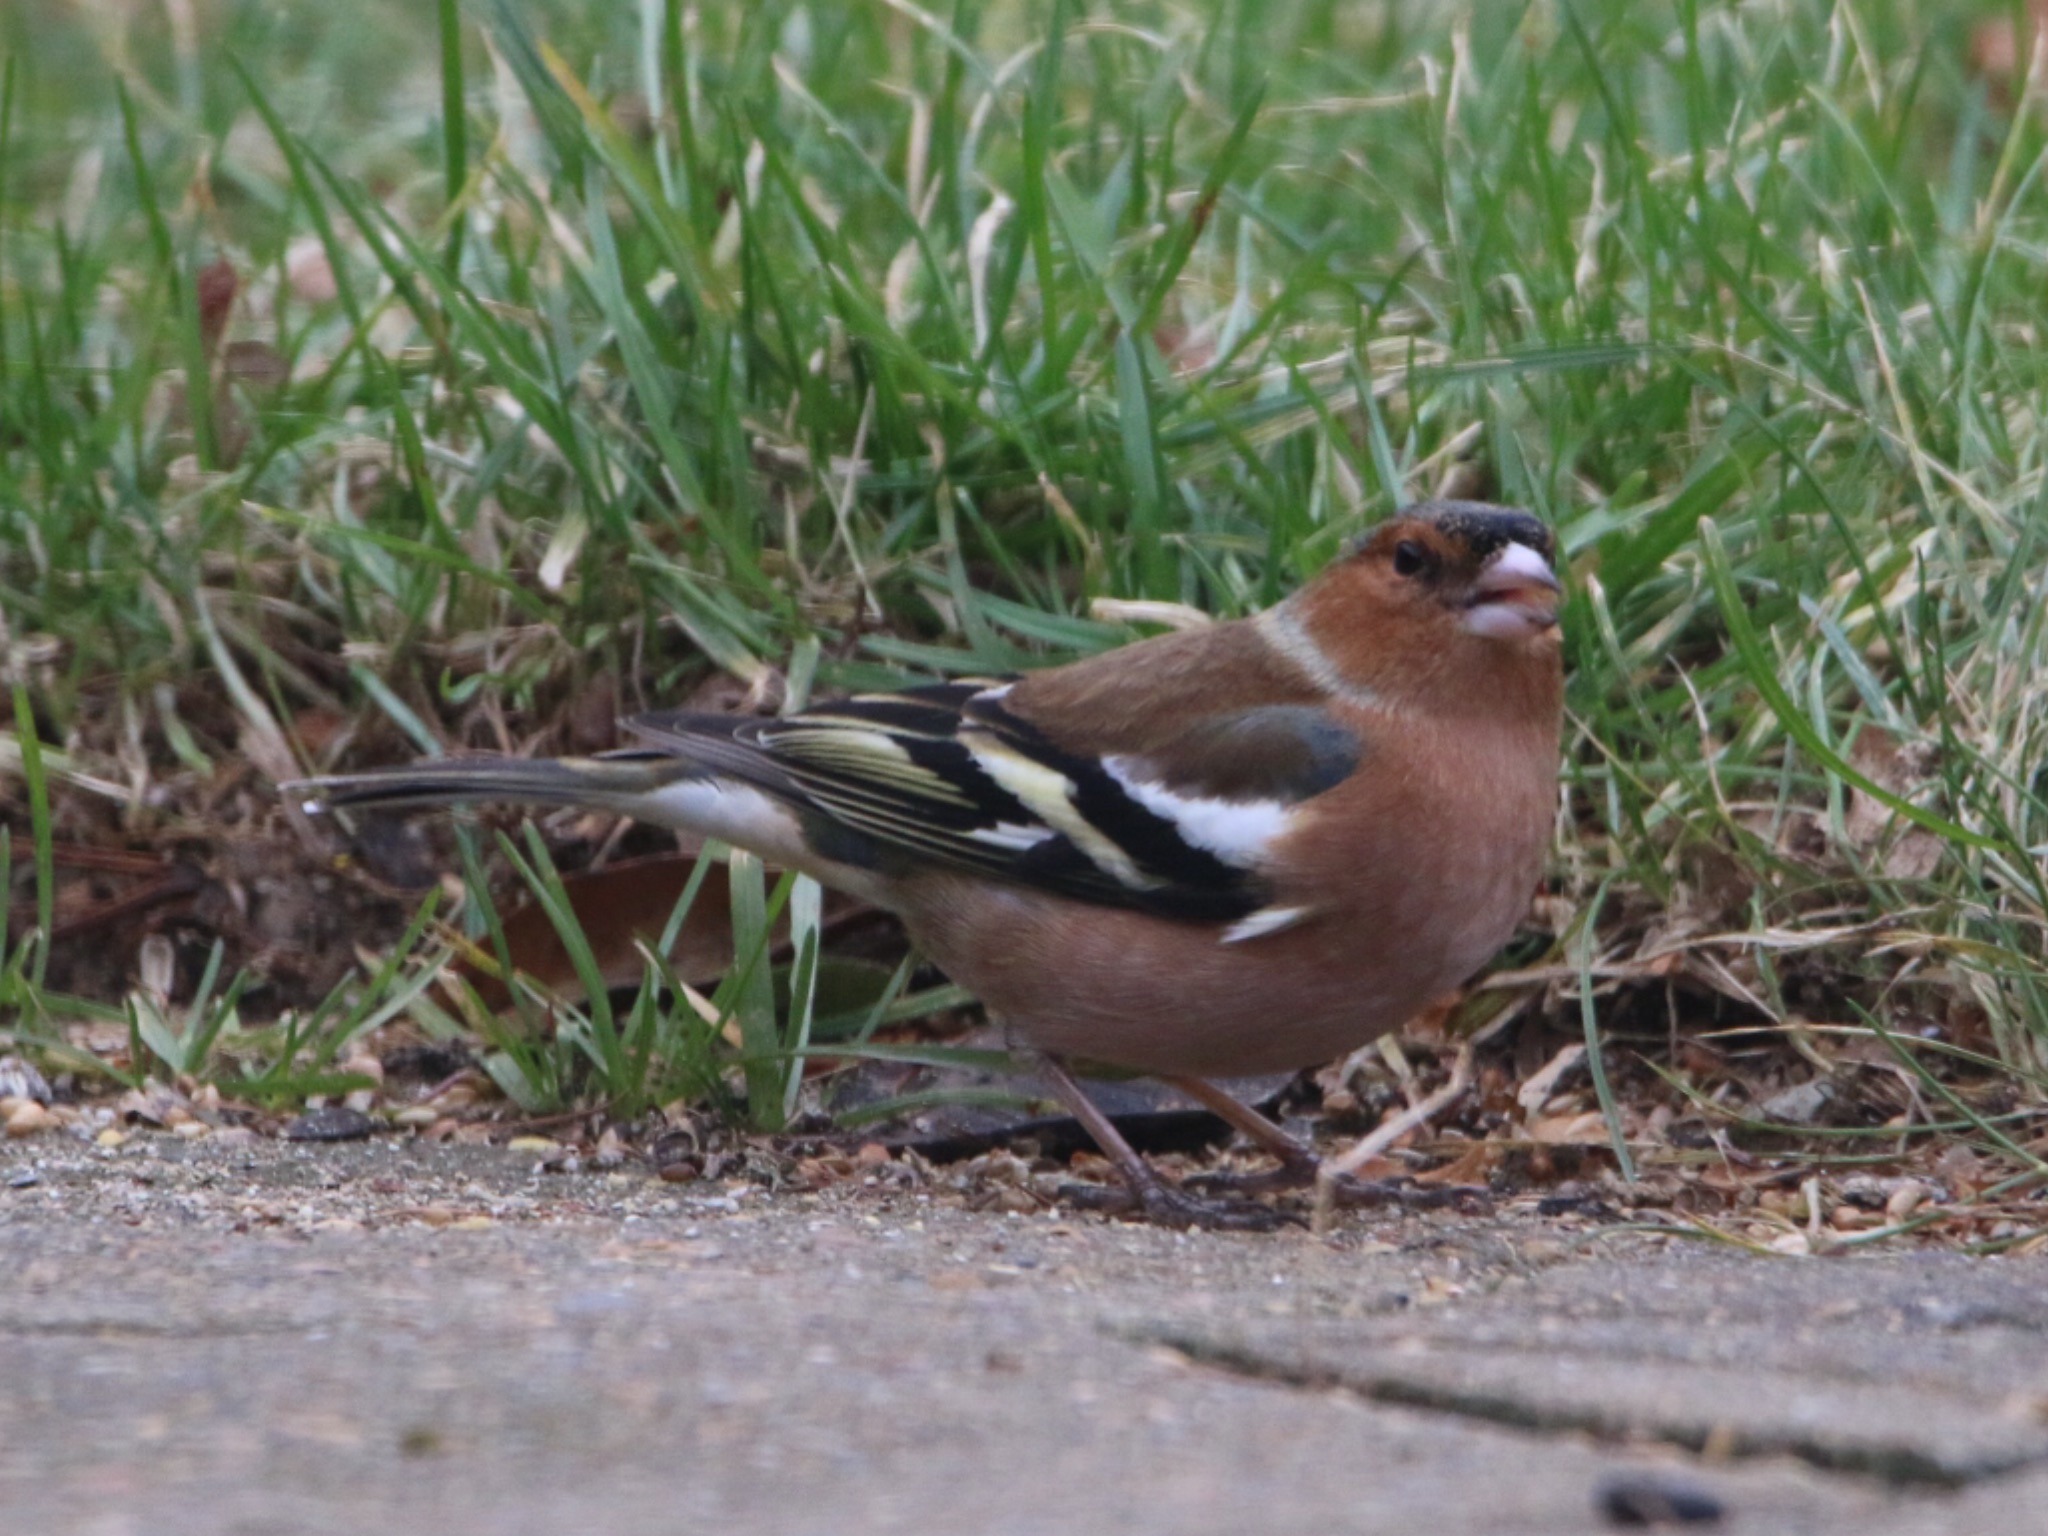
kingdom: Animalia
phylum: Chordata
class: Aves
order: Passeriformes
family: Fringillidae
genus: Fringilla
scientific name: Fringilla coelebs
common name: Bogfinke
